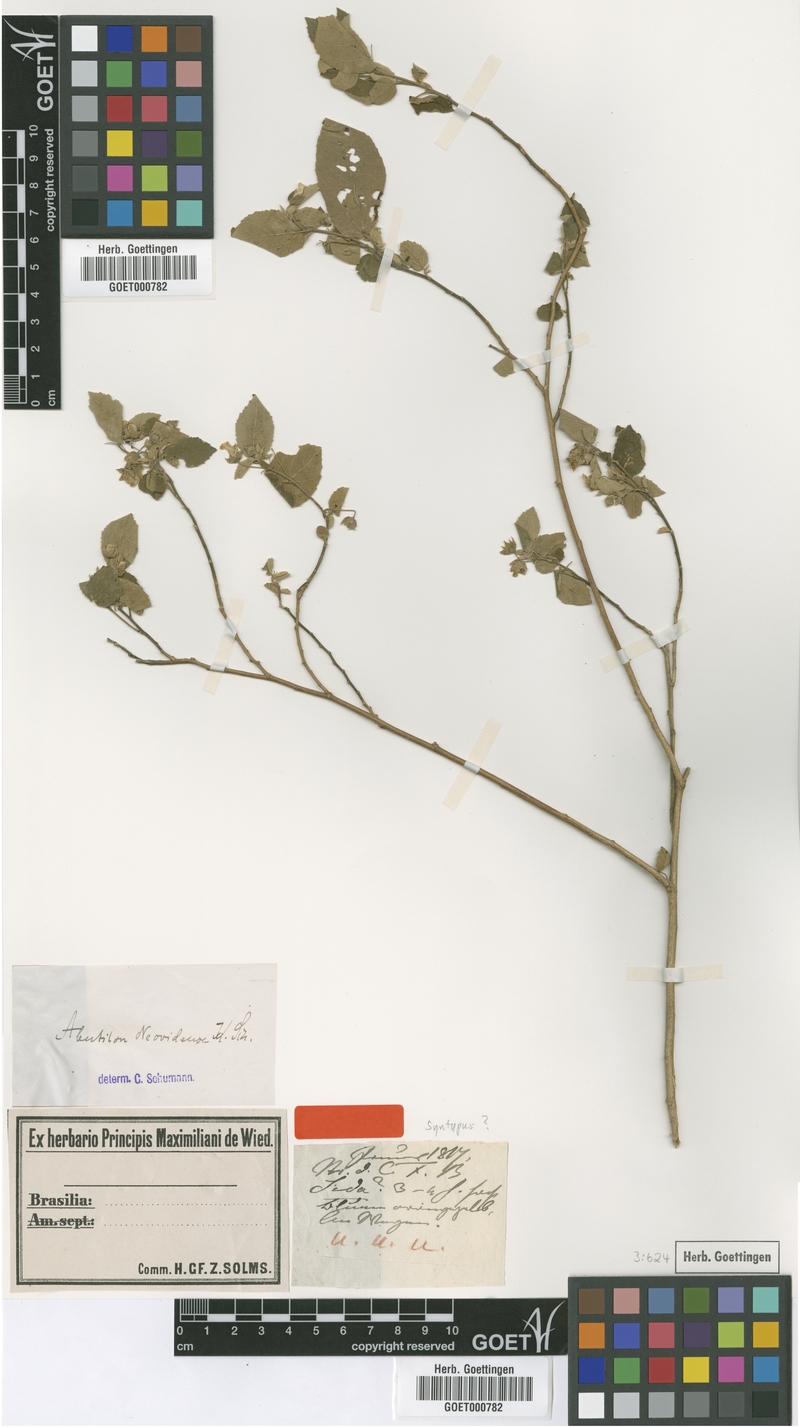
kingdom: Plantae
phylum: Tracheophyta
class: Magnoliopsida
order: Malvales
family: Malvaceae
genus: Abutilon
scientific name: Abutilon anodoides
